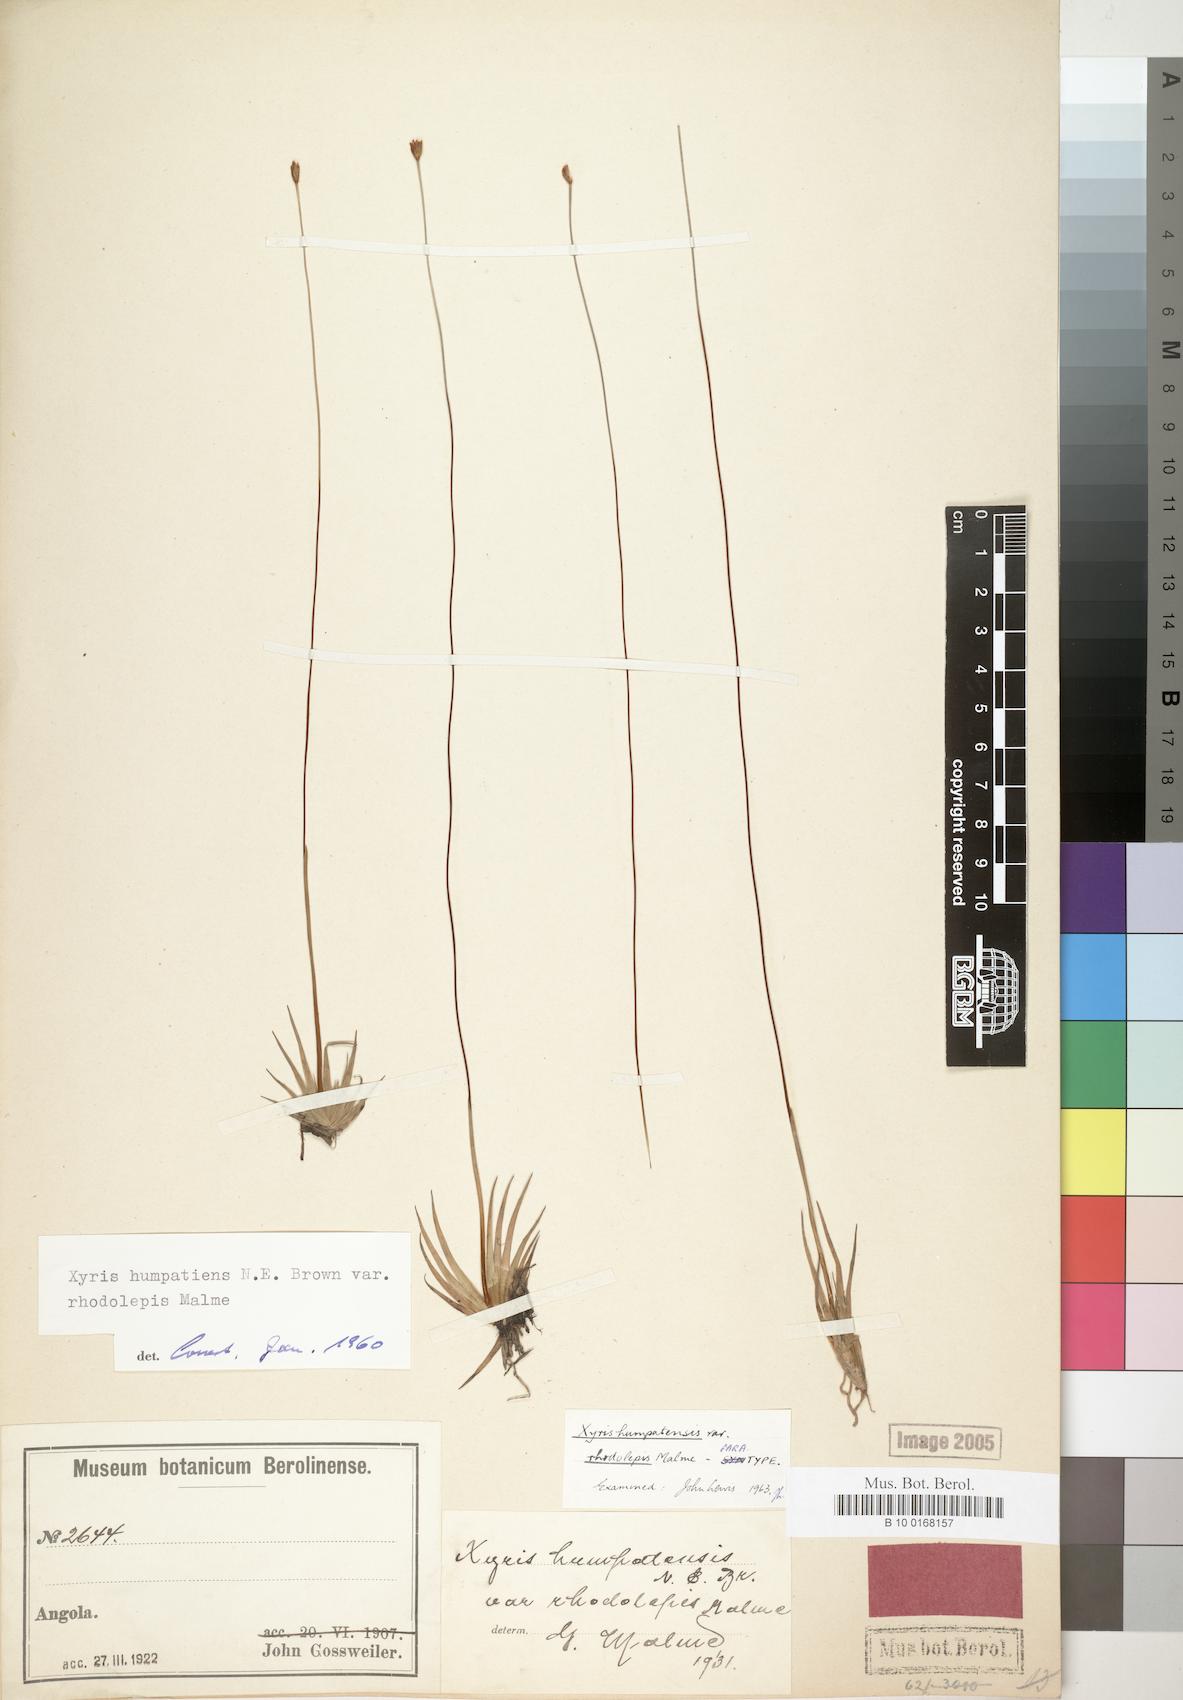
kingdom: Plantae
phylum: Tracheophyta
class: Liliopsida
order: Poales
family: Xyridaceae
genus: Xyris
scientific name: Xyris rhodolepis
